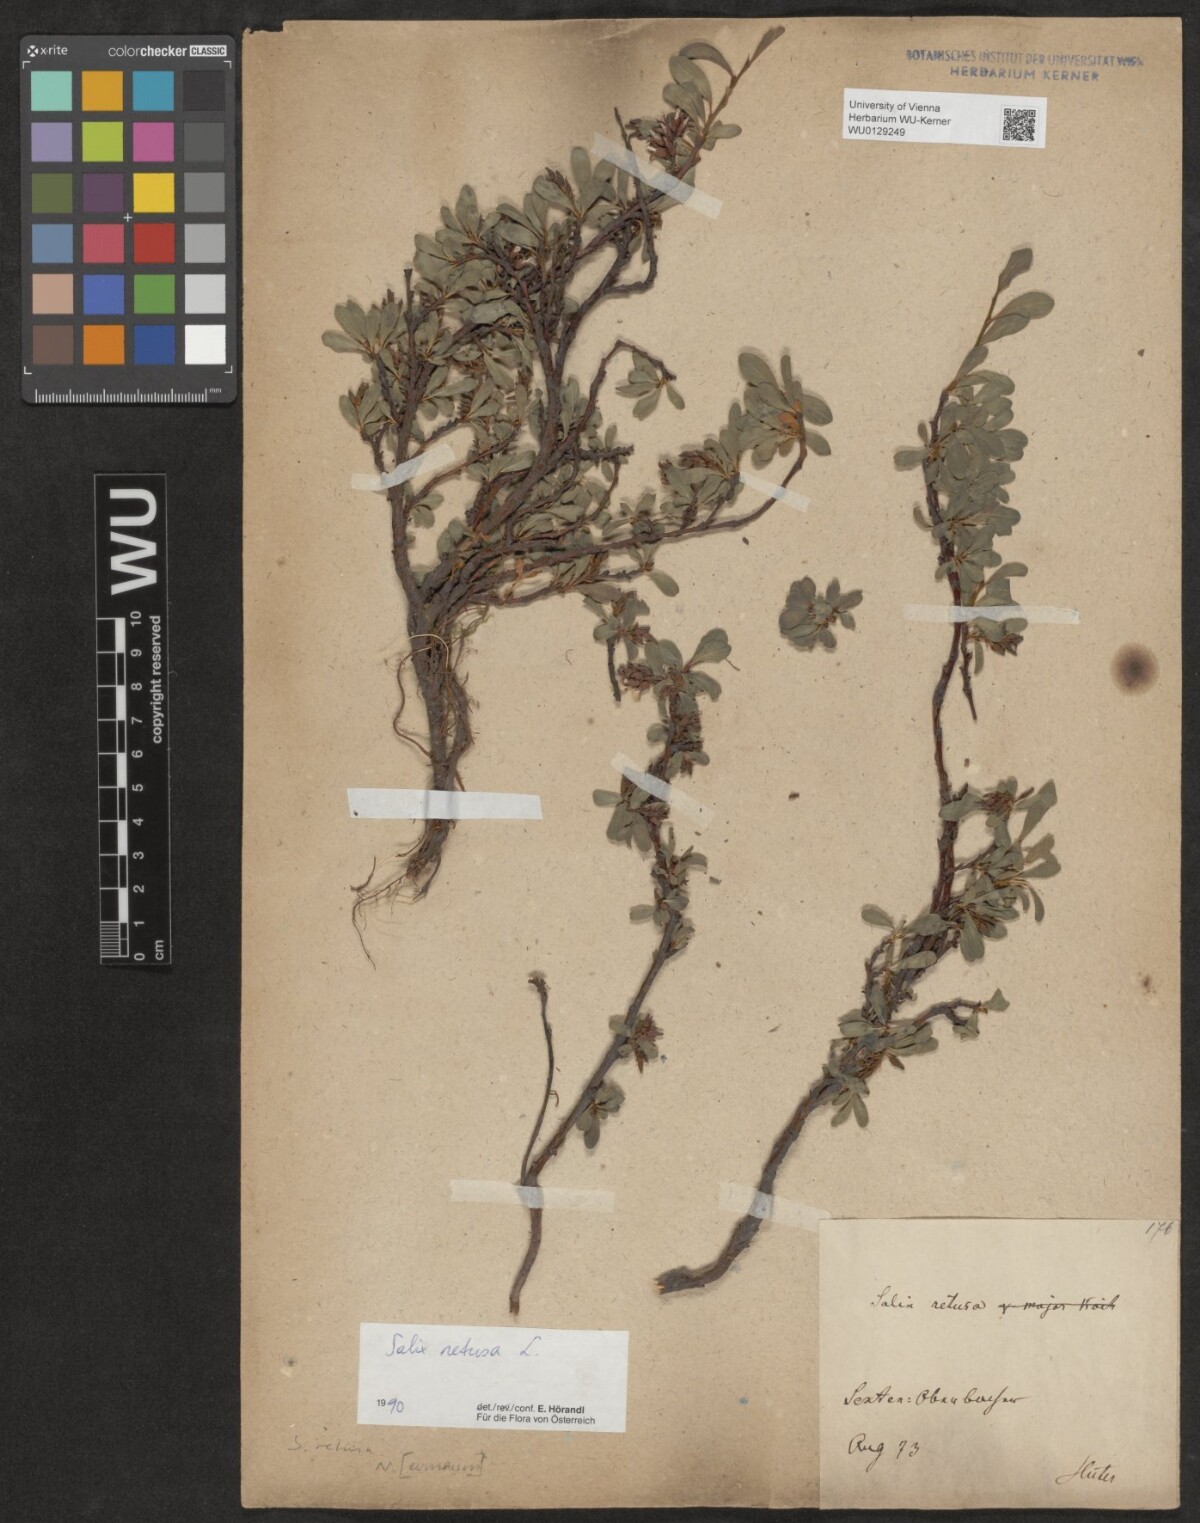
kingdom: Plantae
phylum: Tracheophyta
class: Magnoliopsida
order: Malpighiales
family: Salicaceae
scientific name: Salicaceae
